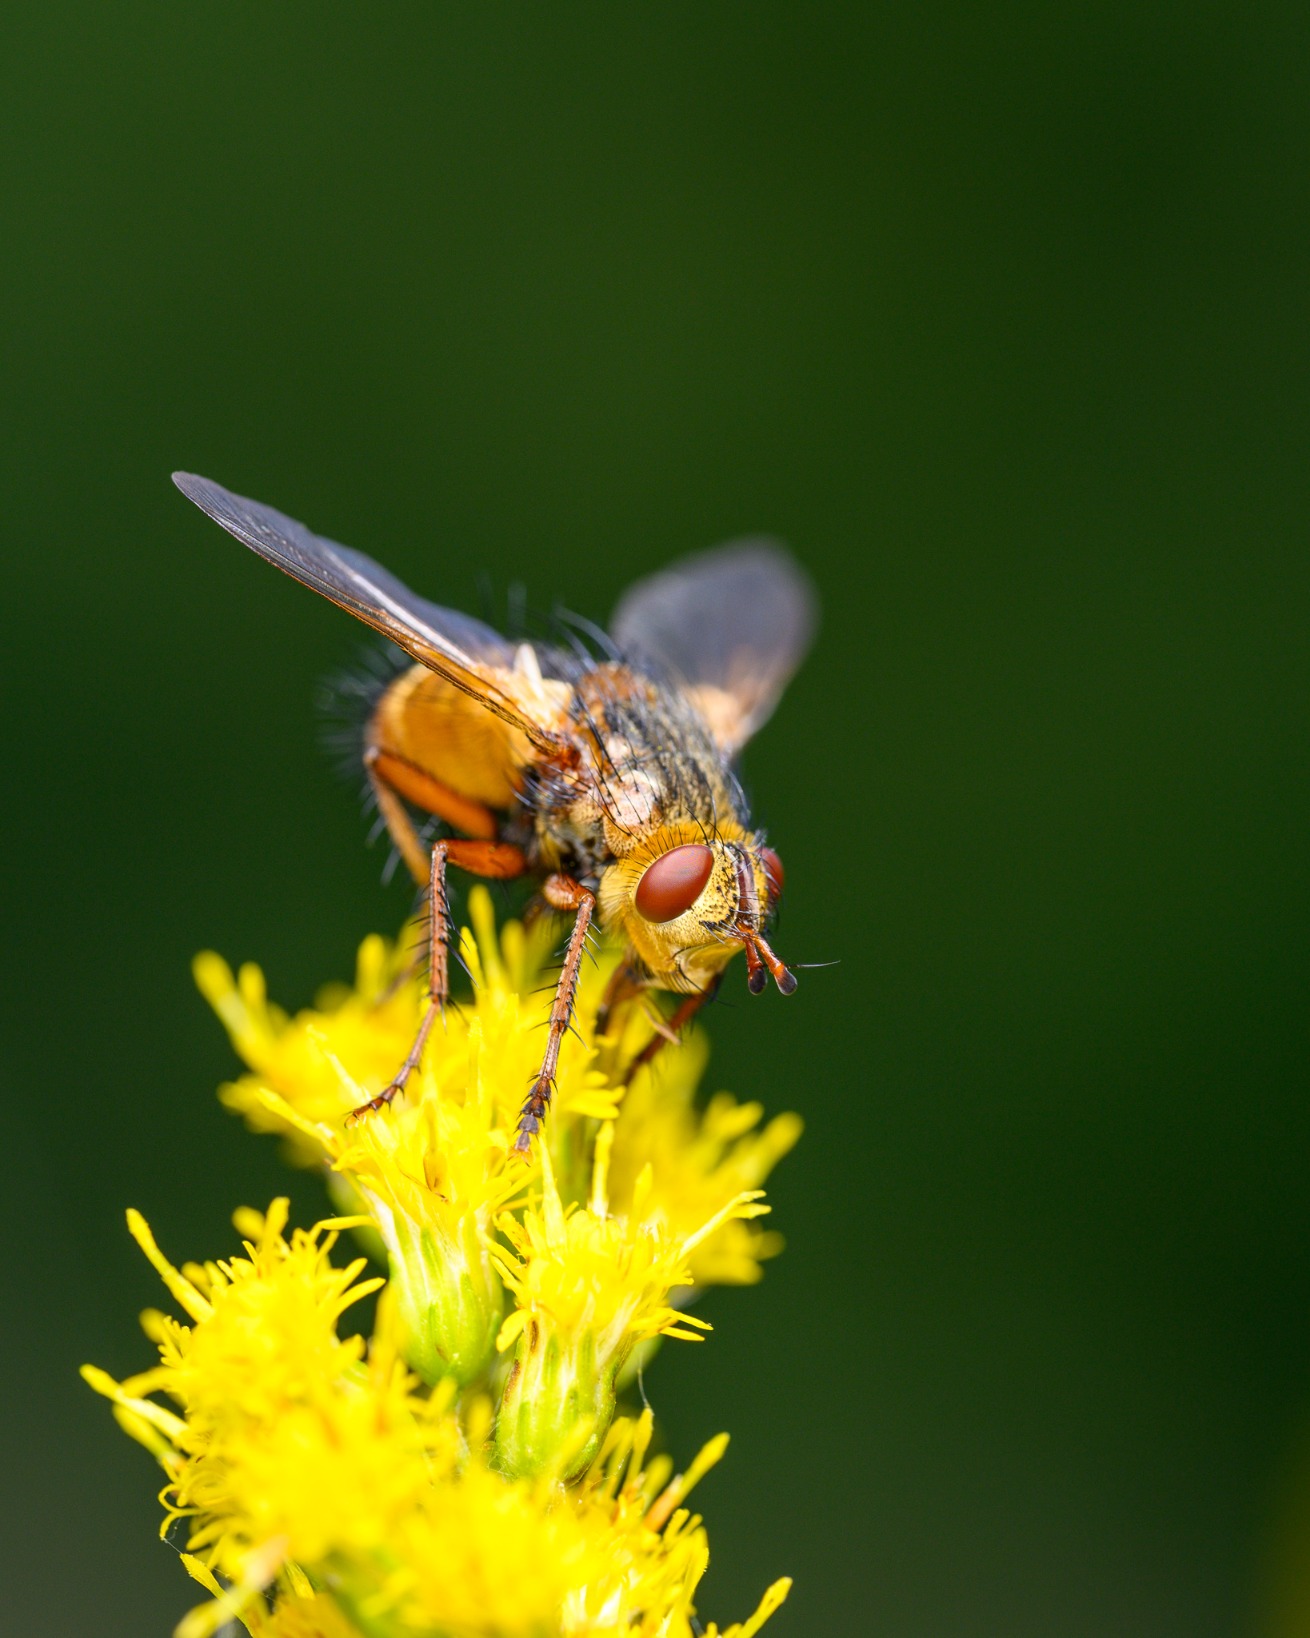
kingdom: Animalia
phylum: Arthropoda
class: Insecta
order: Diptera
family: Tachinidae
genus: Tachina
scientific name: Tachina fera
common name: Mellemfluen oskar
